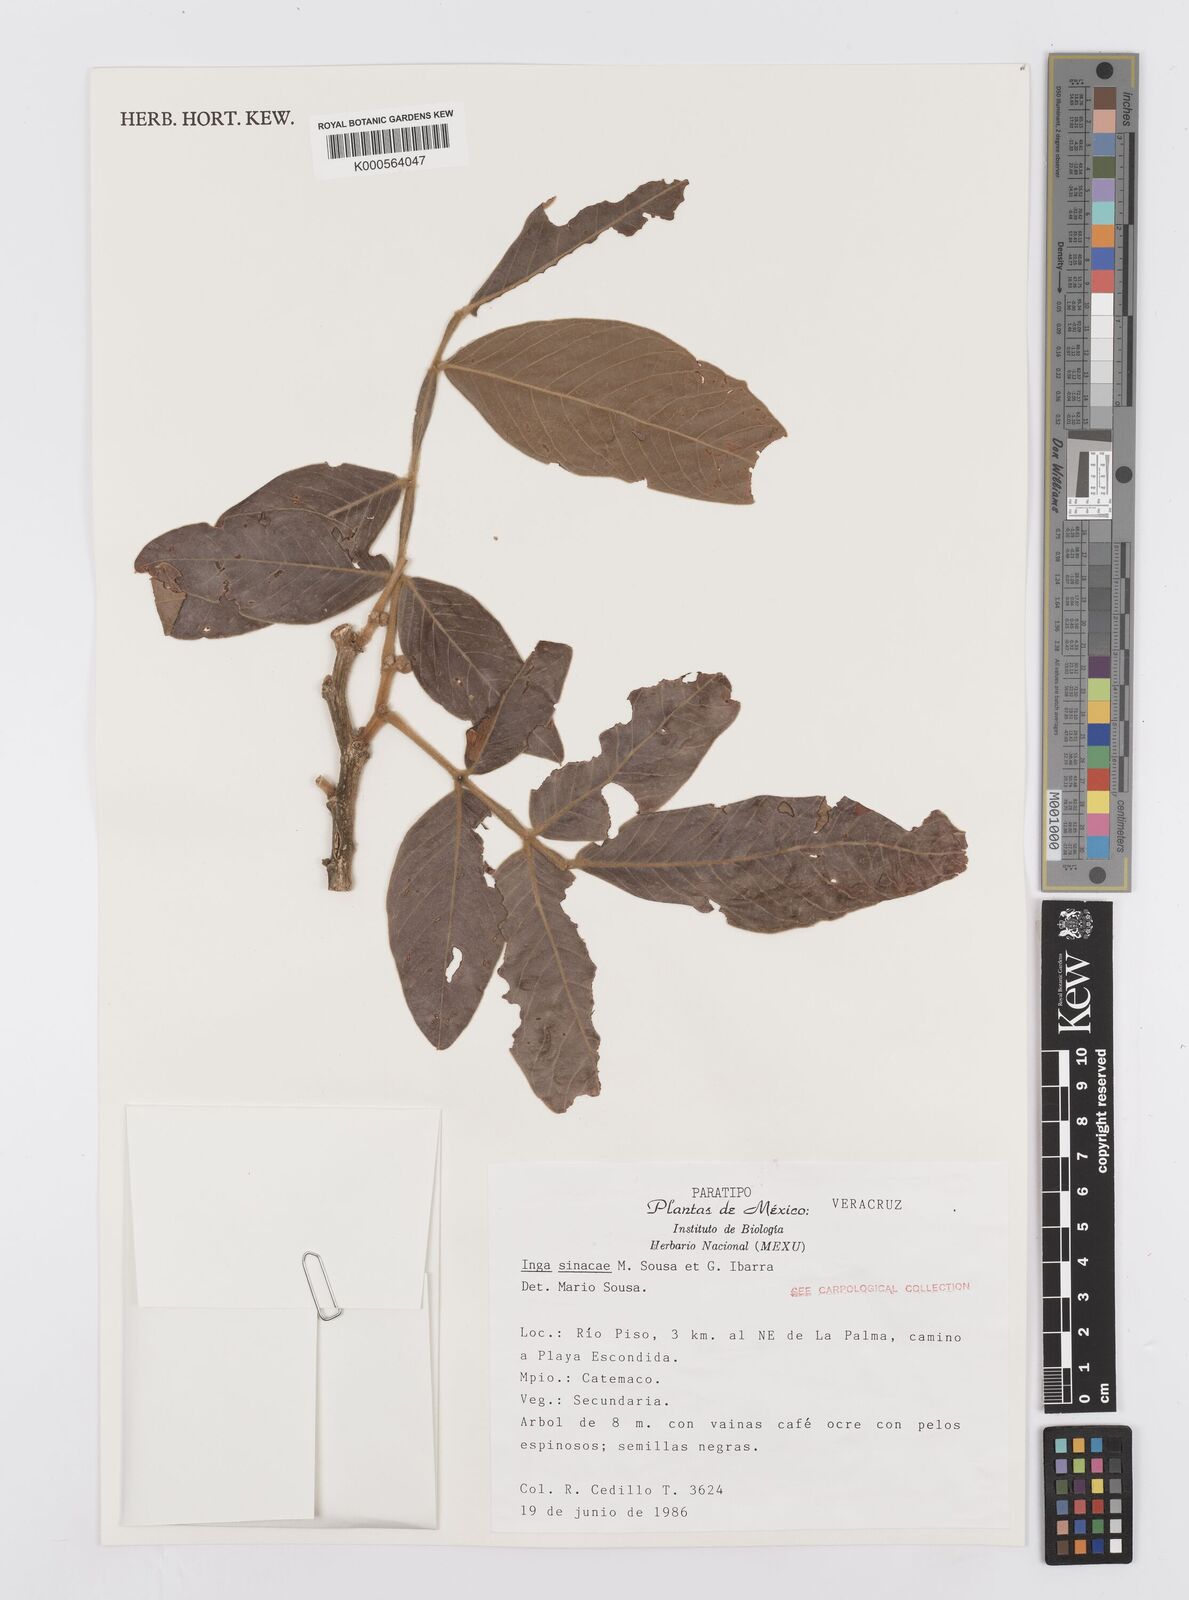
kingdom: Plantae
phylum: Tracheophyta
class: Magnoliopsida
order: Fabales
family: Fabaceae
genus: Inga
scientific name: Inga sinacae
